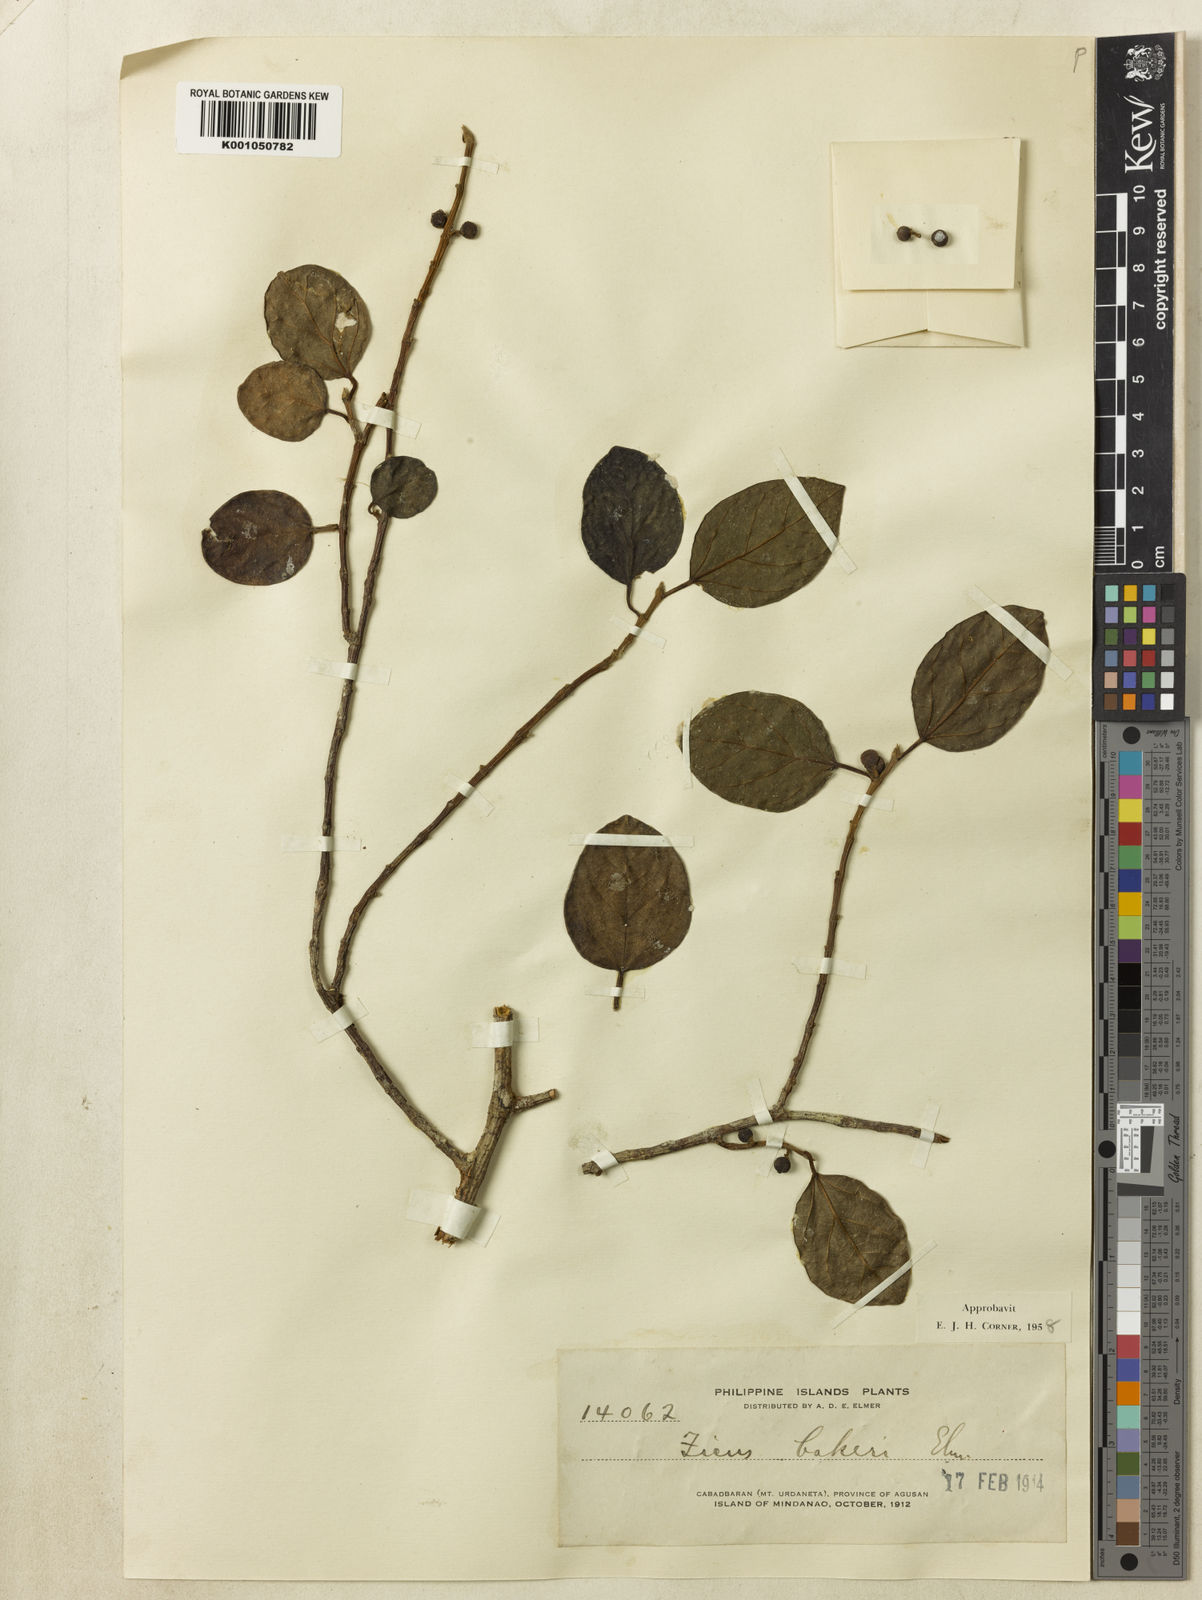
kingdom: Plantae
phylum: Tracheophyta
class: Magnoliopsida
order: Rosales
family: Moraceae
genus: Ficus
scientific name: Ficus bakeri
